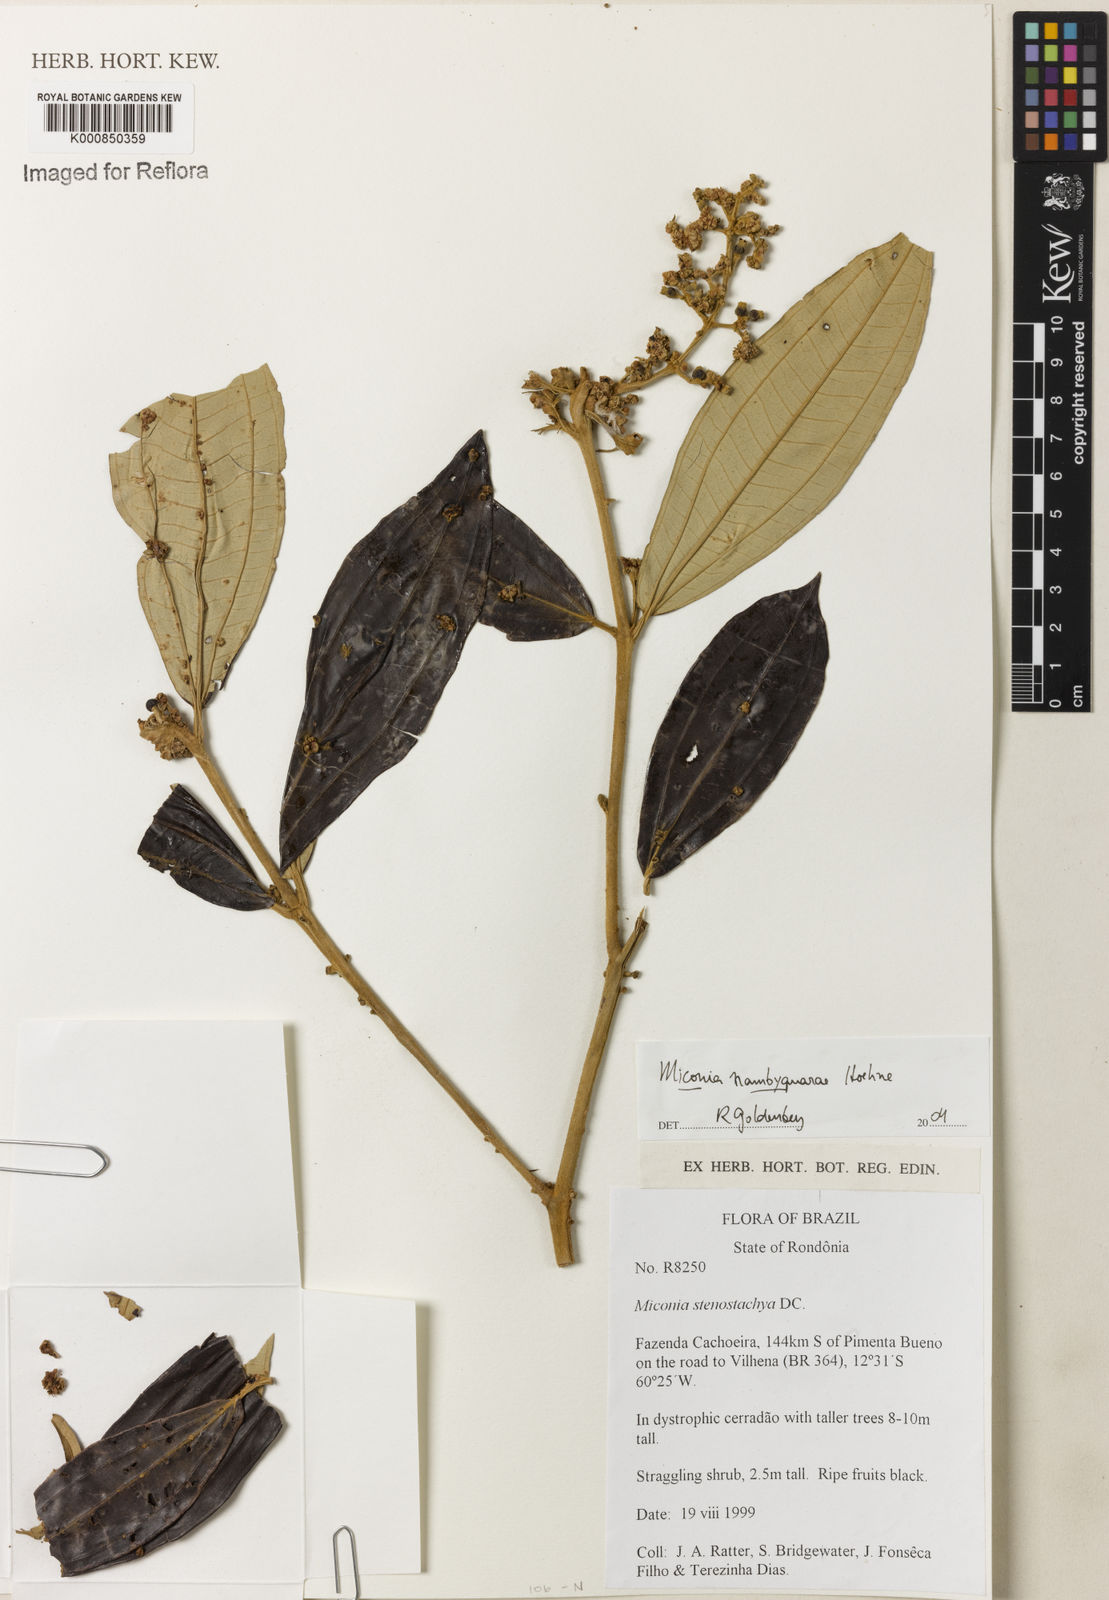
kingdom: Plantae
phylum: Tracheophyta
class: Magnoliopsida
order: Myrtales
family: Melastomataceae
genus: Miconia
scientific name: Miconia nambyquarae
